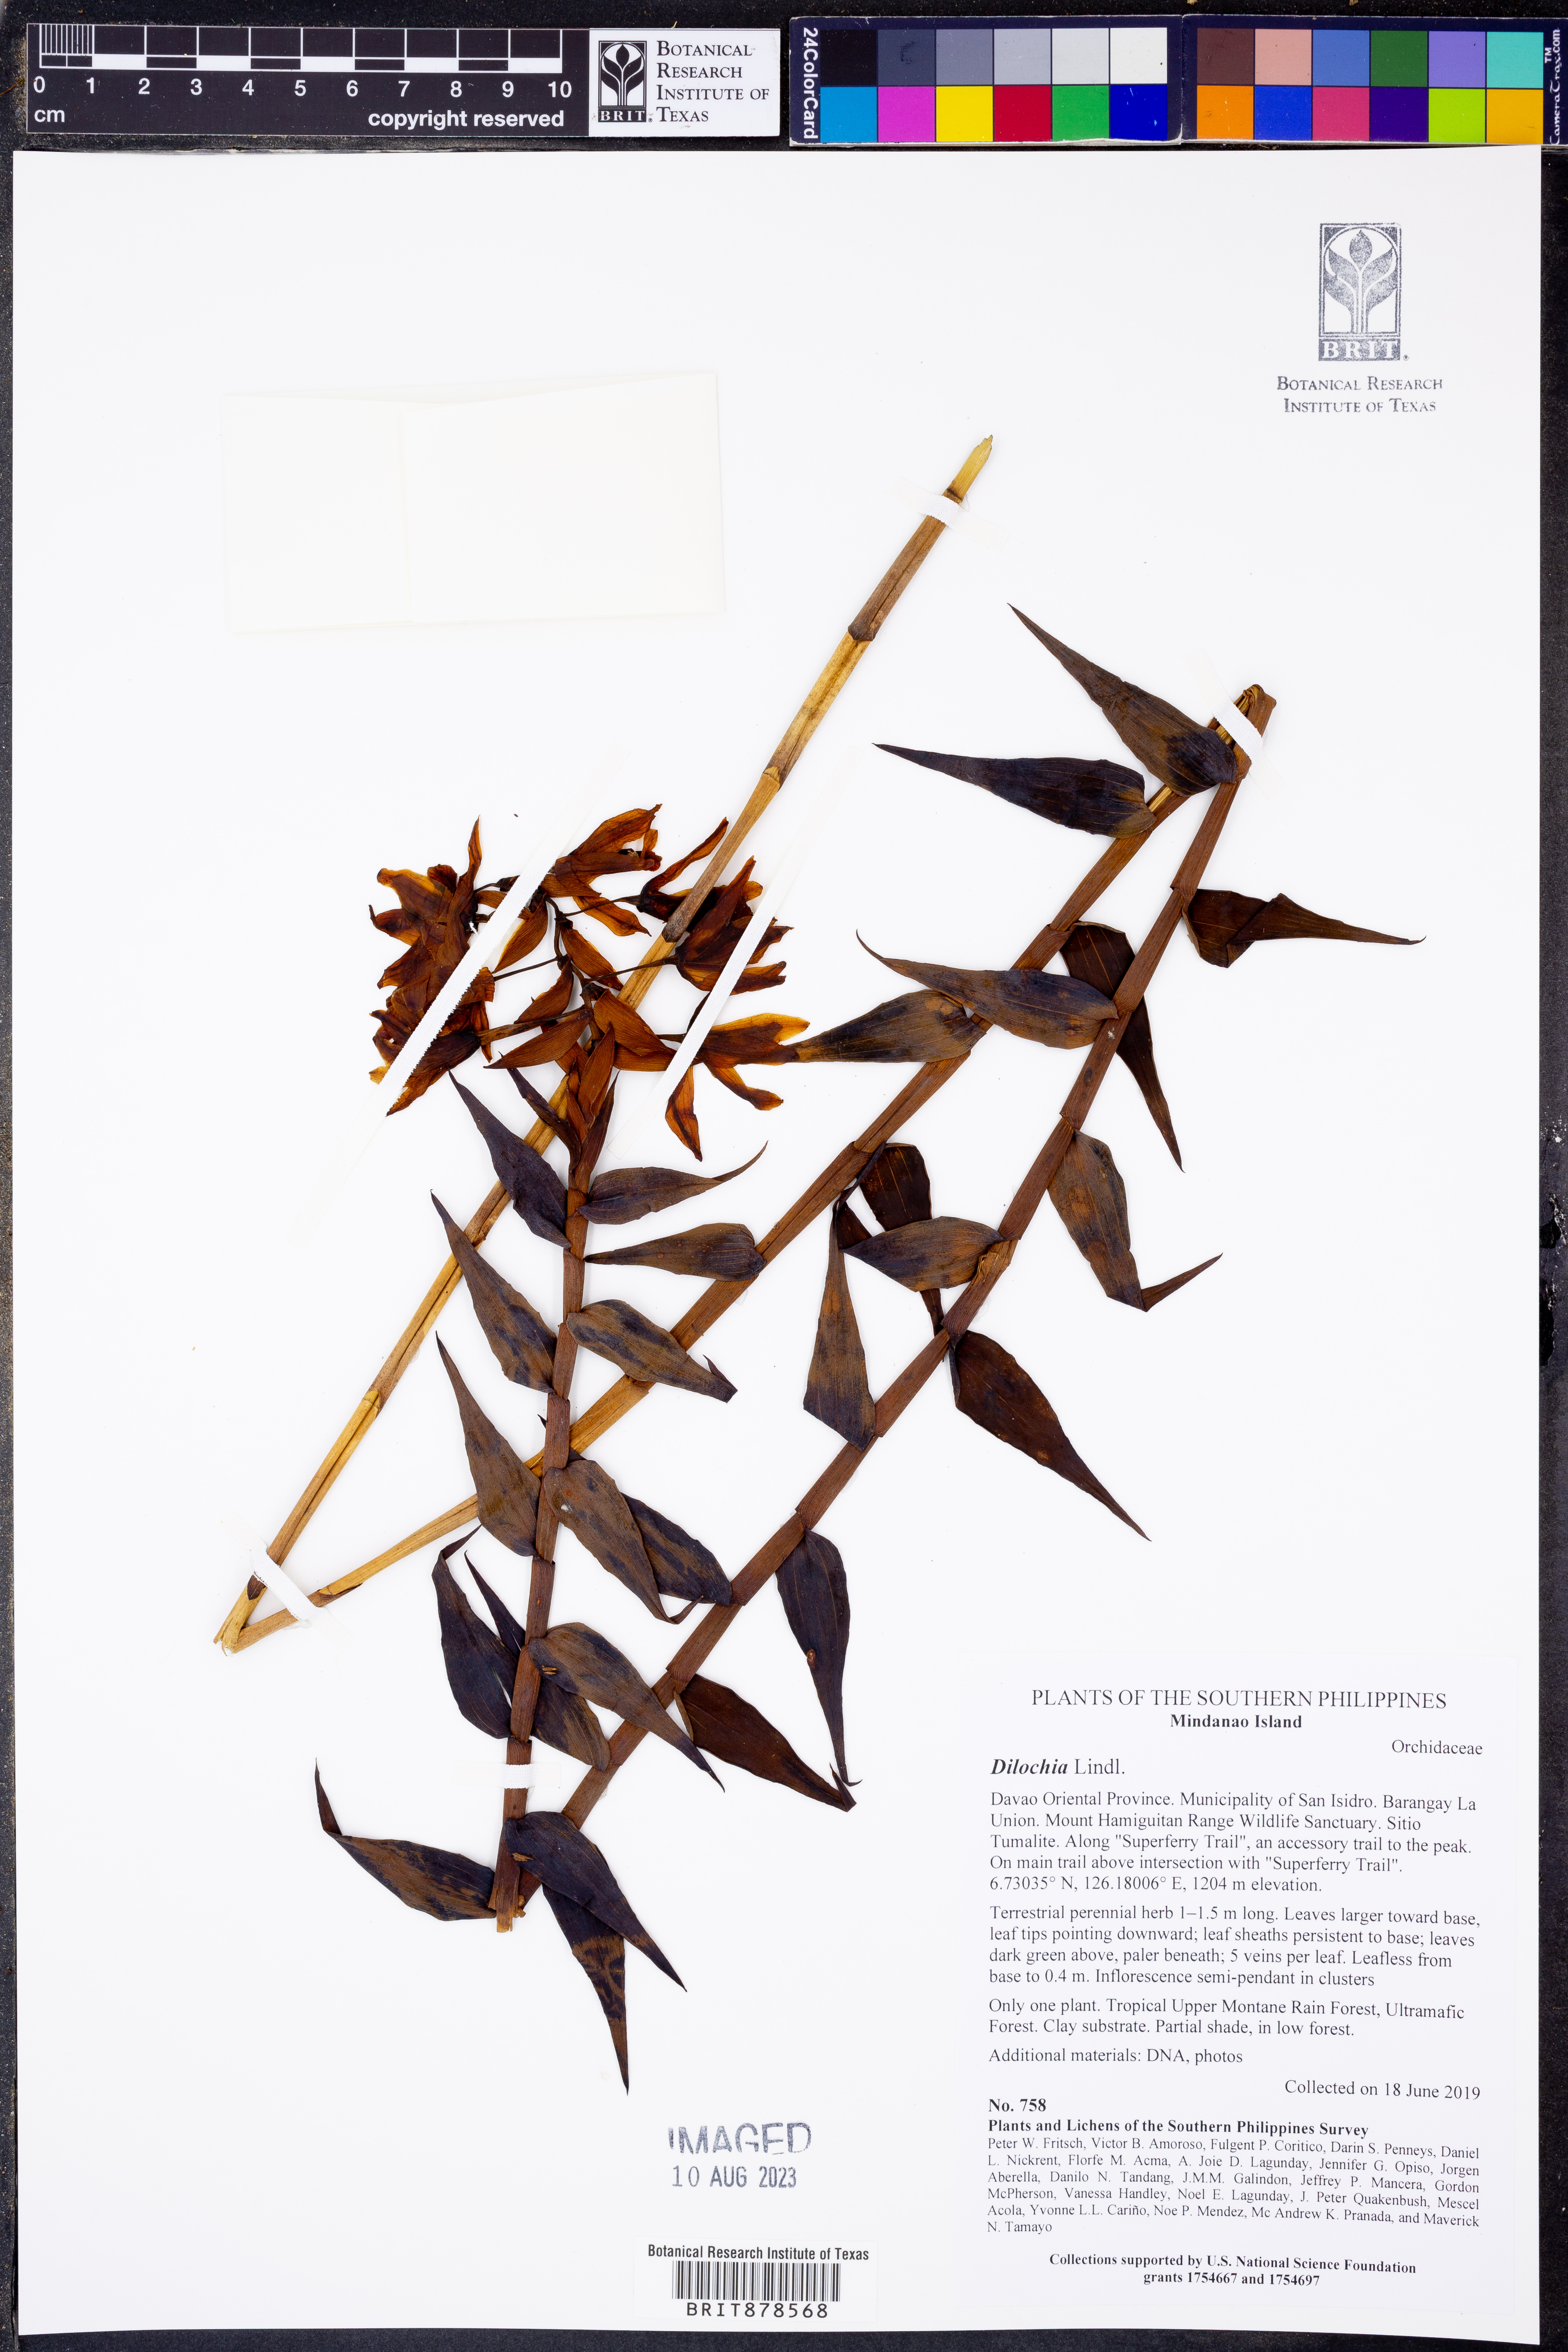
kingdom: Plantae
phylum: Tracheophyta
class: Liliopsida
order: Asparagales
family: Orchidaceae
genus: Dilochia
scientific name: Dilochia
